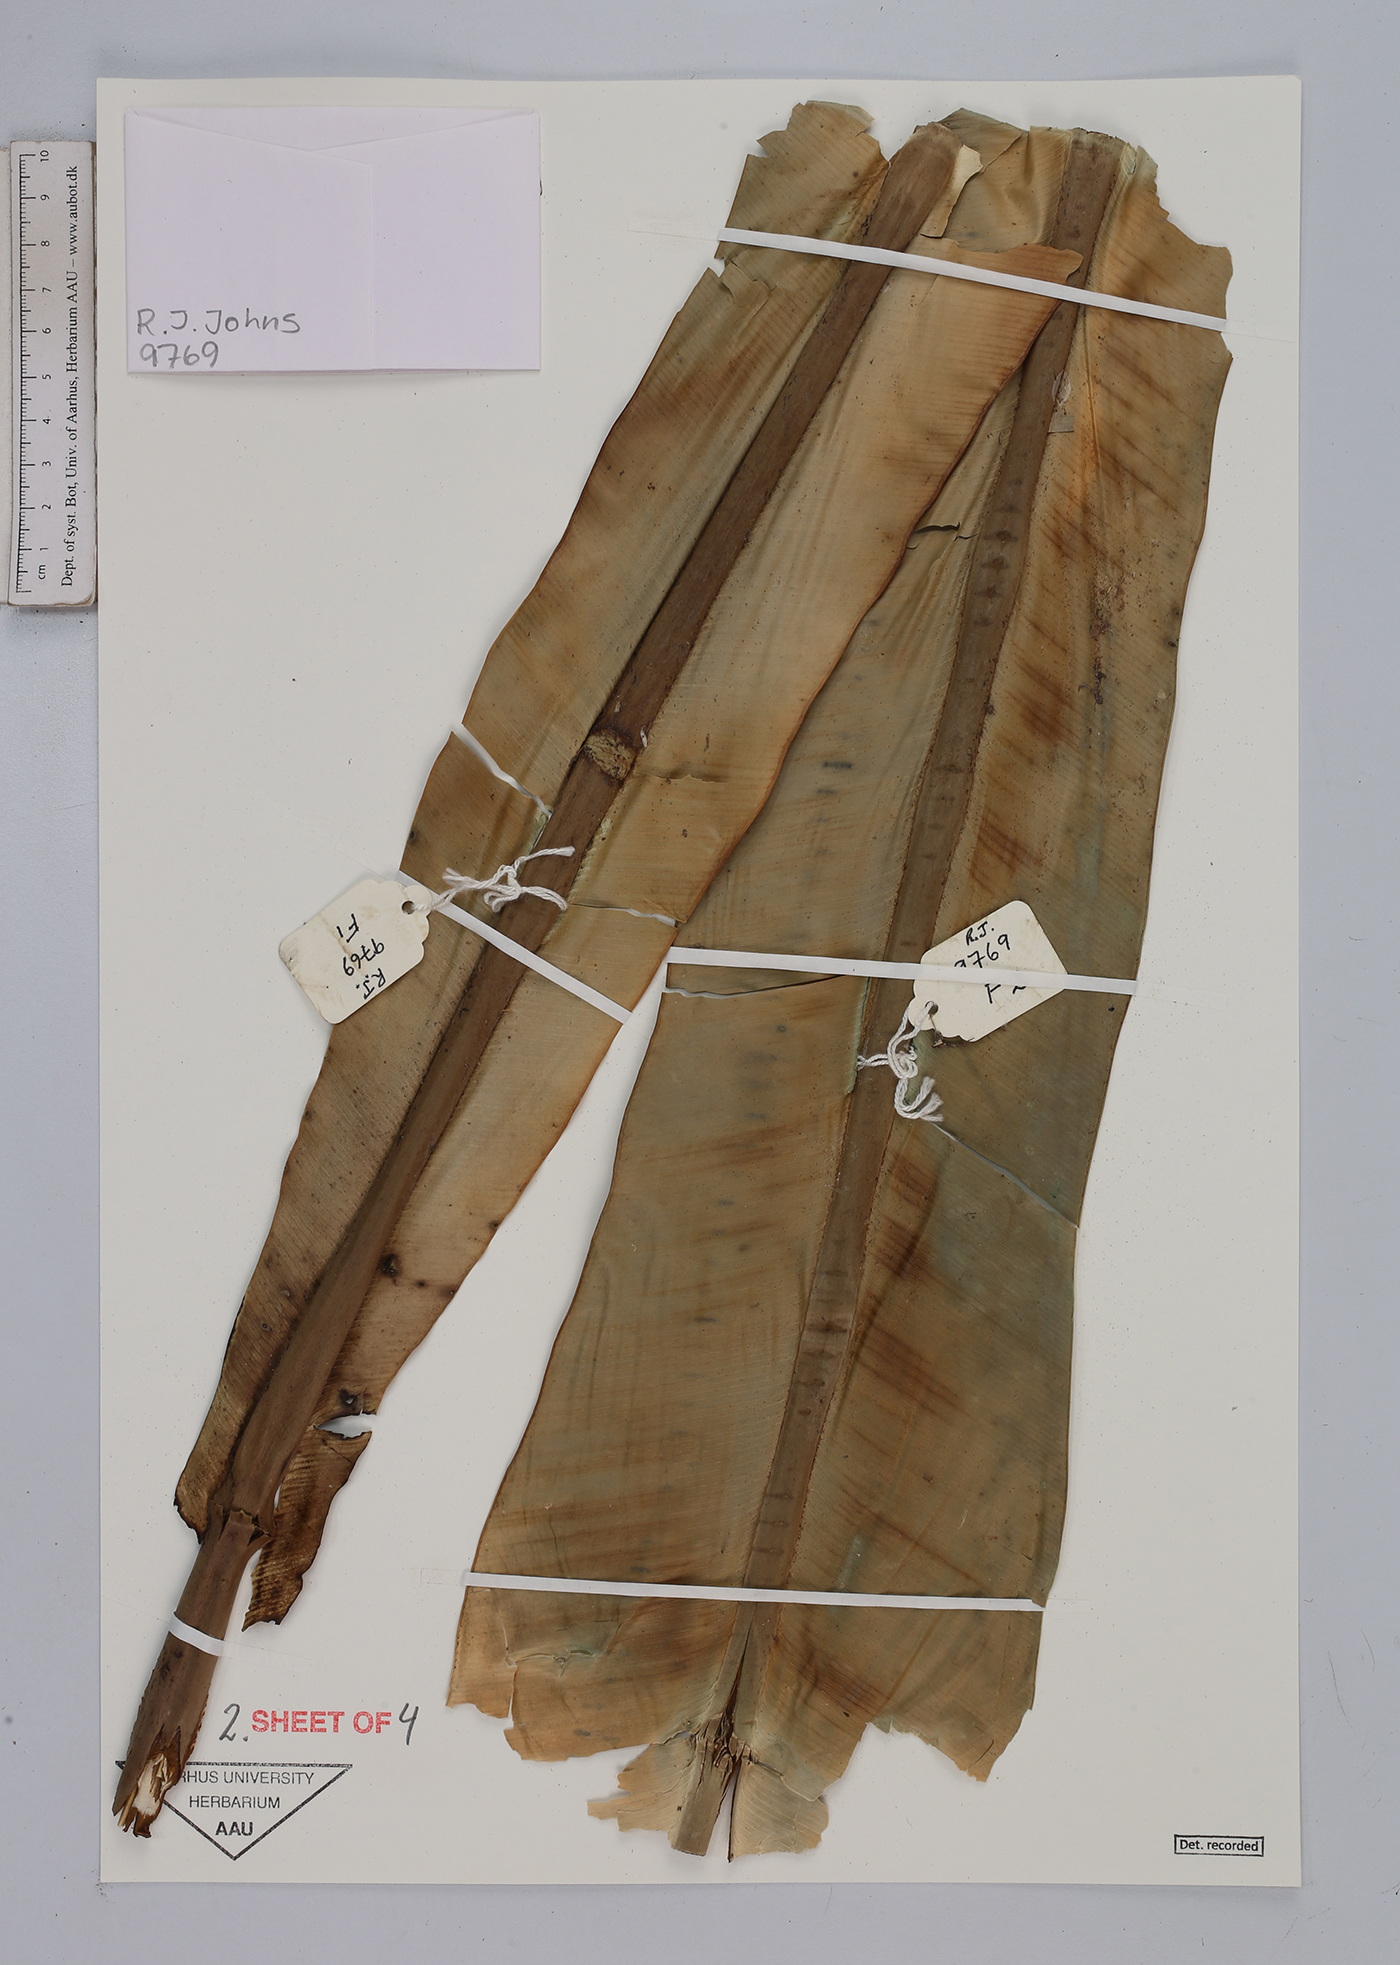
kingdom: Plantae
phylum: Tracheophyta
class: Polypodiopsida
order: Polypodiales
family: Aspleniaceae
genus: Asplenium
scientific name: Asplenium
